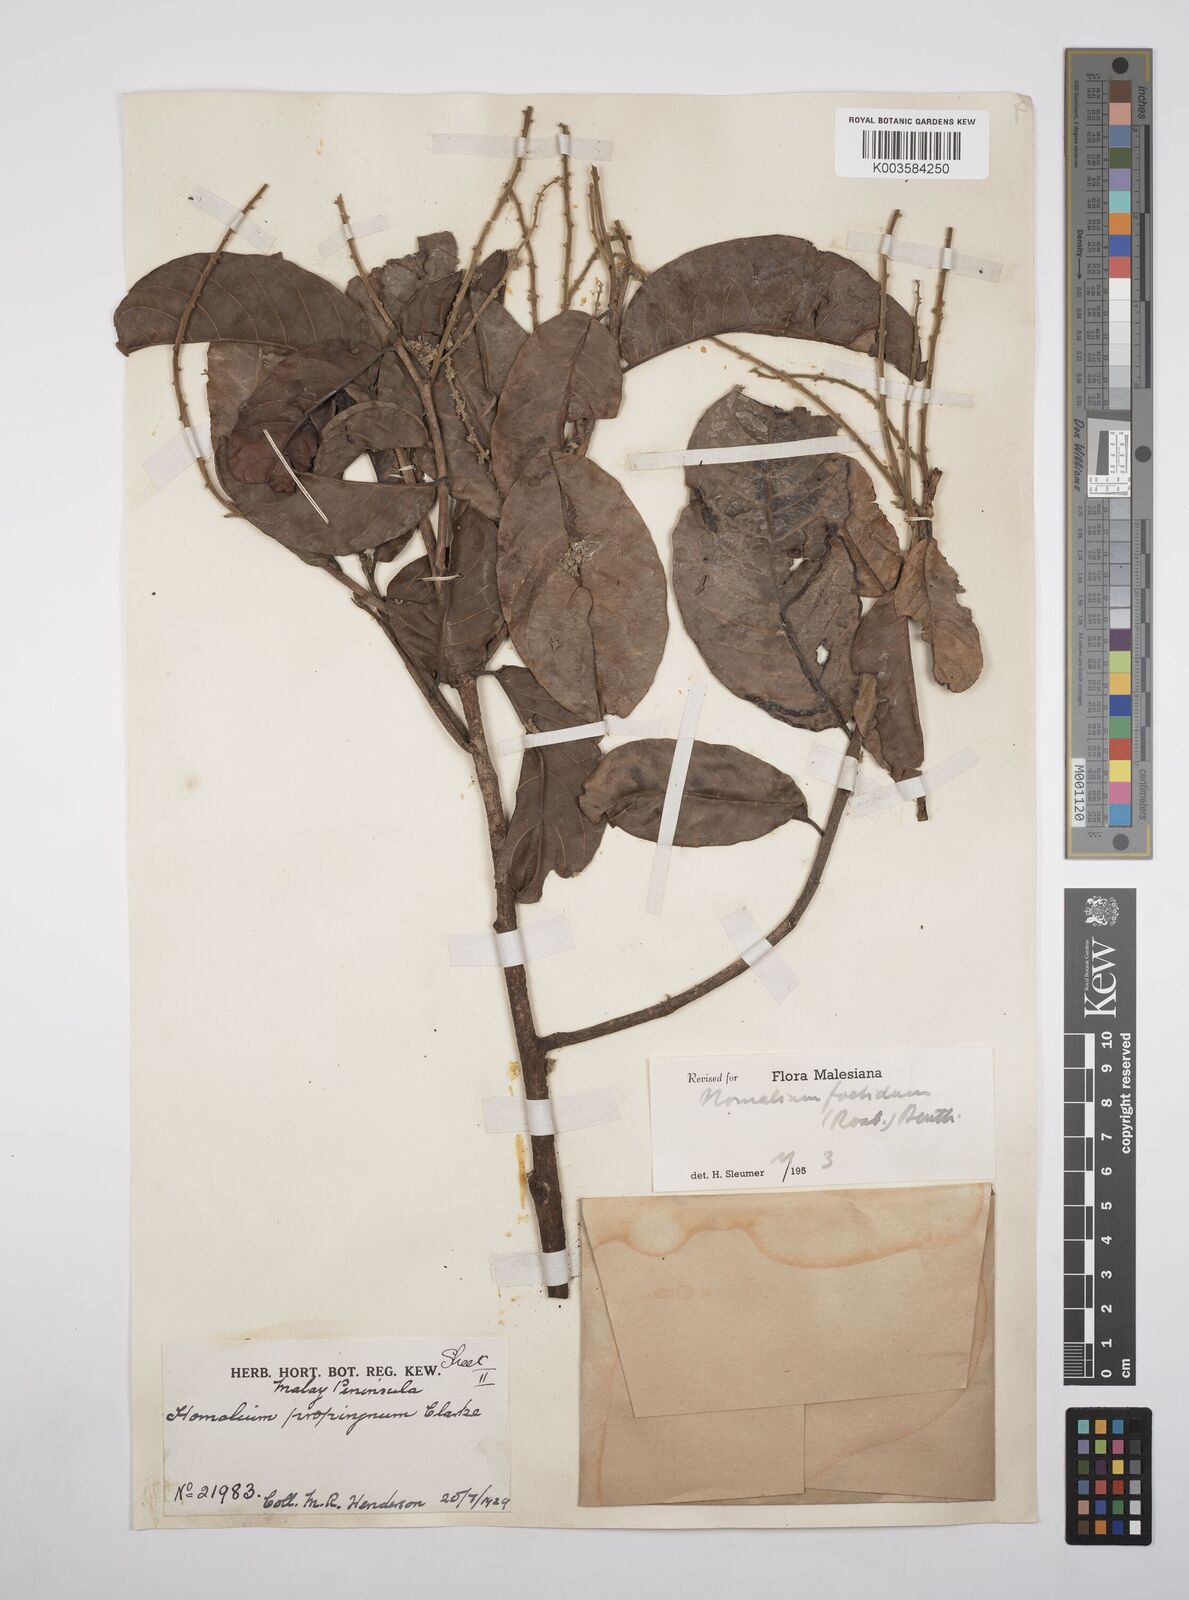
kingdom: Plantae
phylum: Tracheophyta
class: Magnoliopsida
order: Malpighiales
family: Salicaceae
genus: Homalium
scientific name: Homalium foetidum
